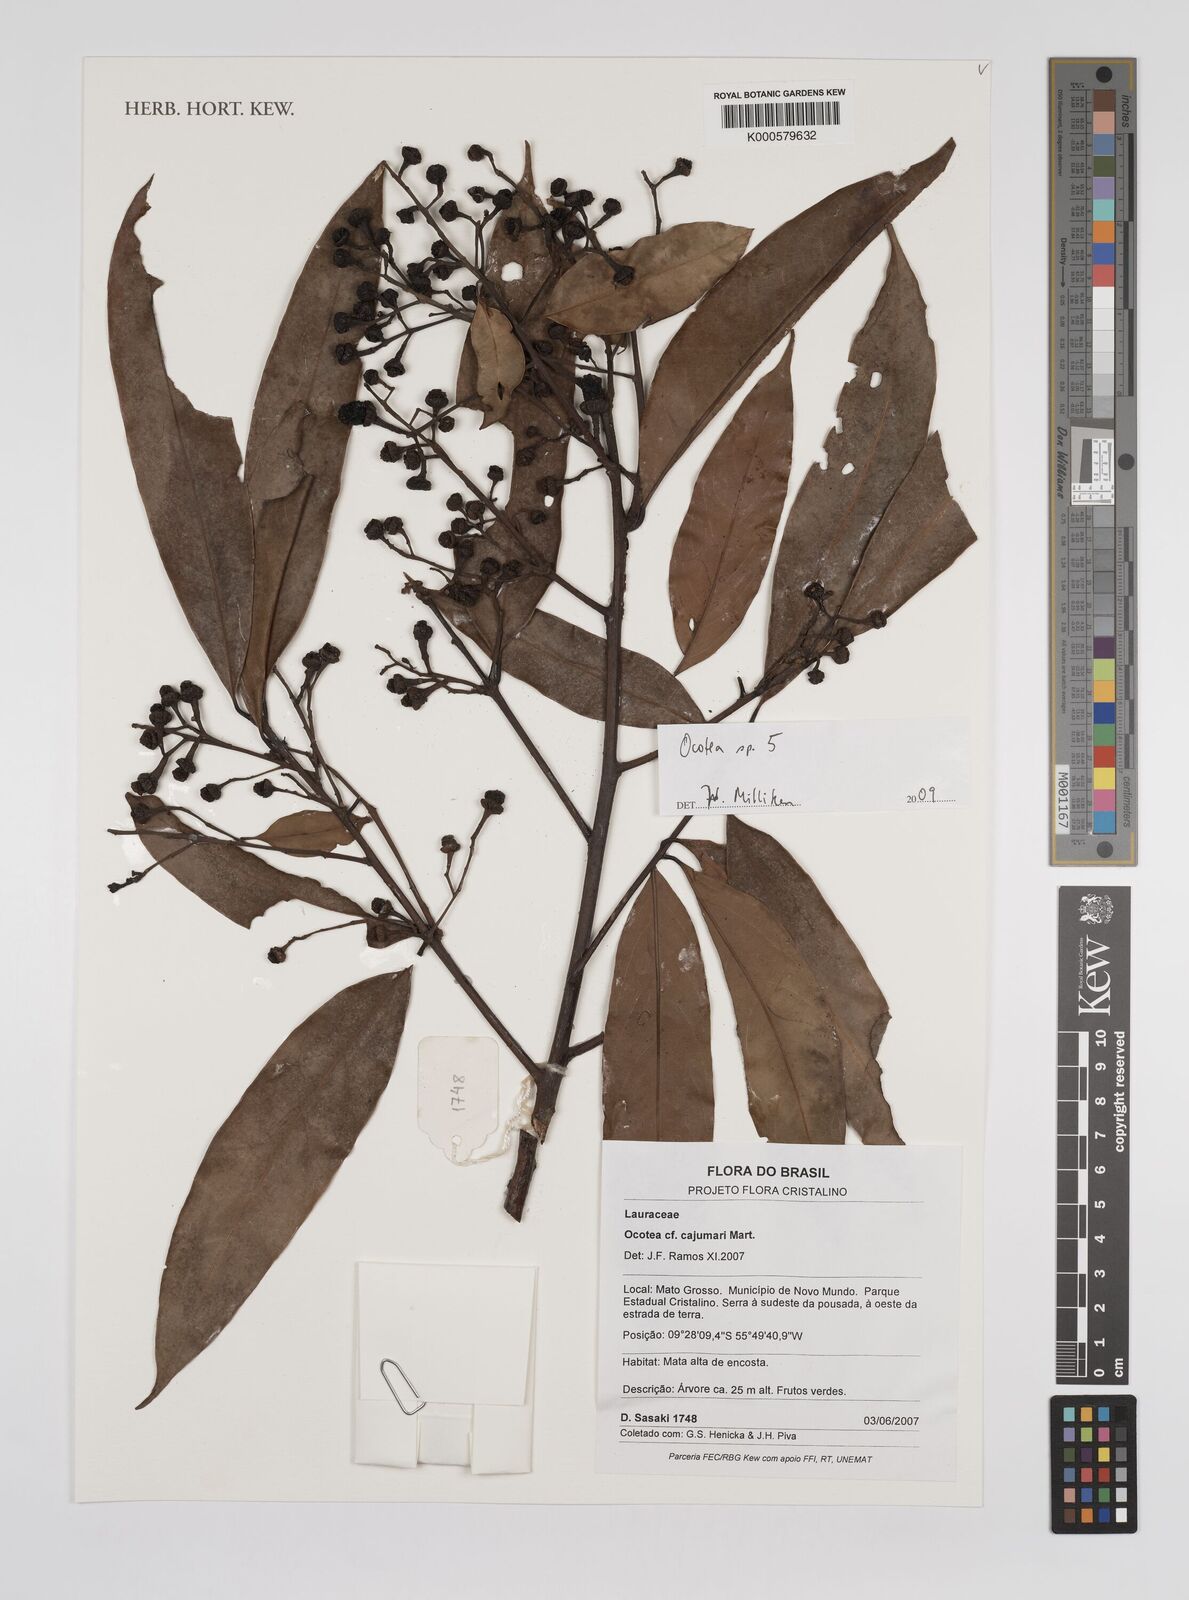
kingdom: Plantae
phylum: Tracheophyta
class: Magnoliopsida
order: Laurales
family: Lauraceae
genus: Ocotea
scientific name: Ocotea
